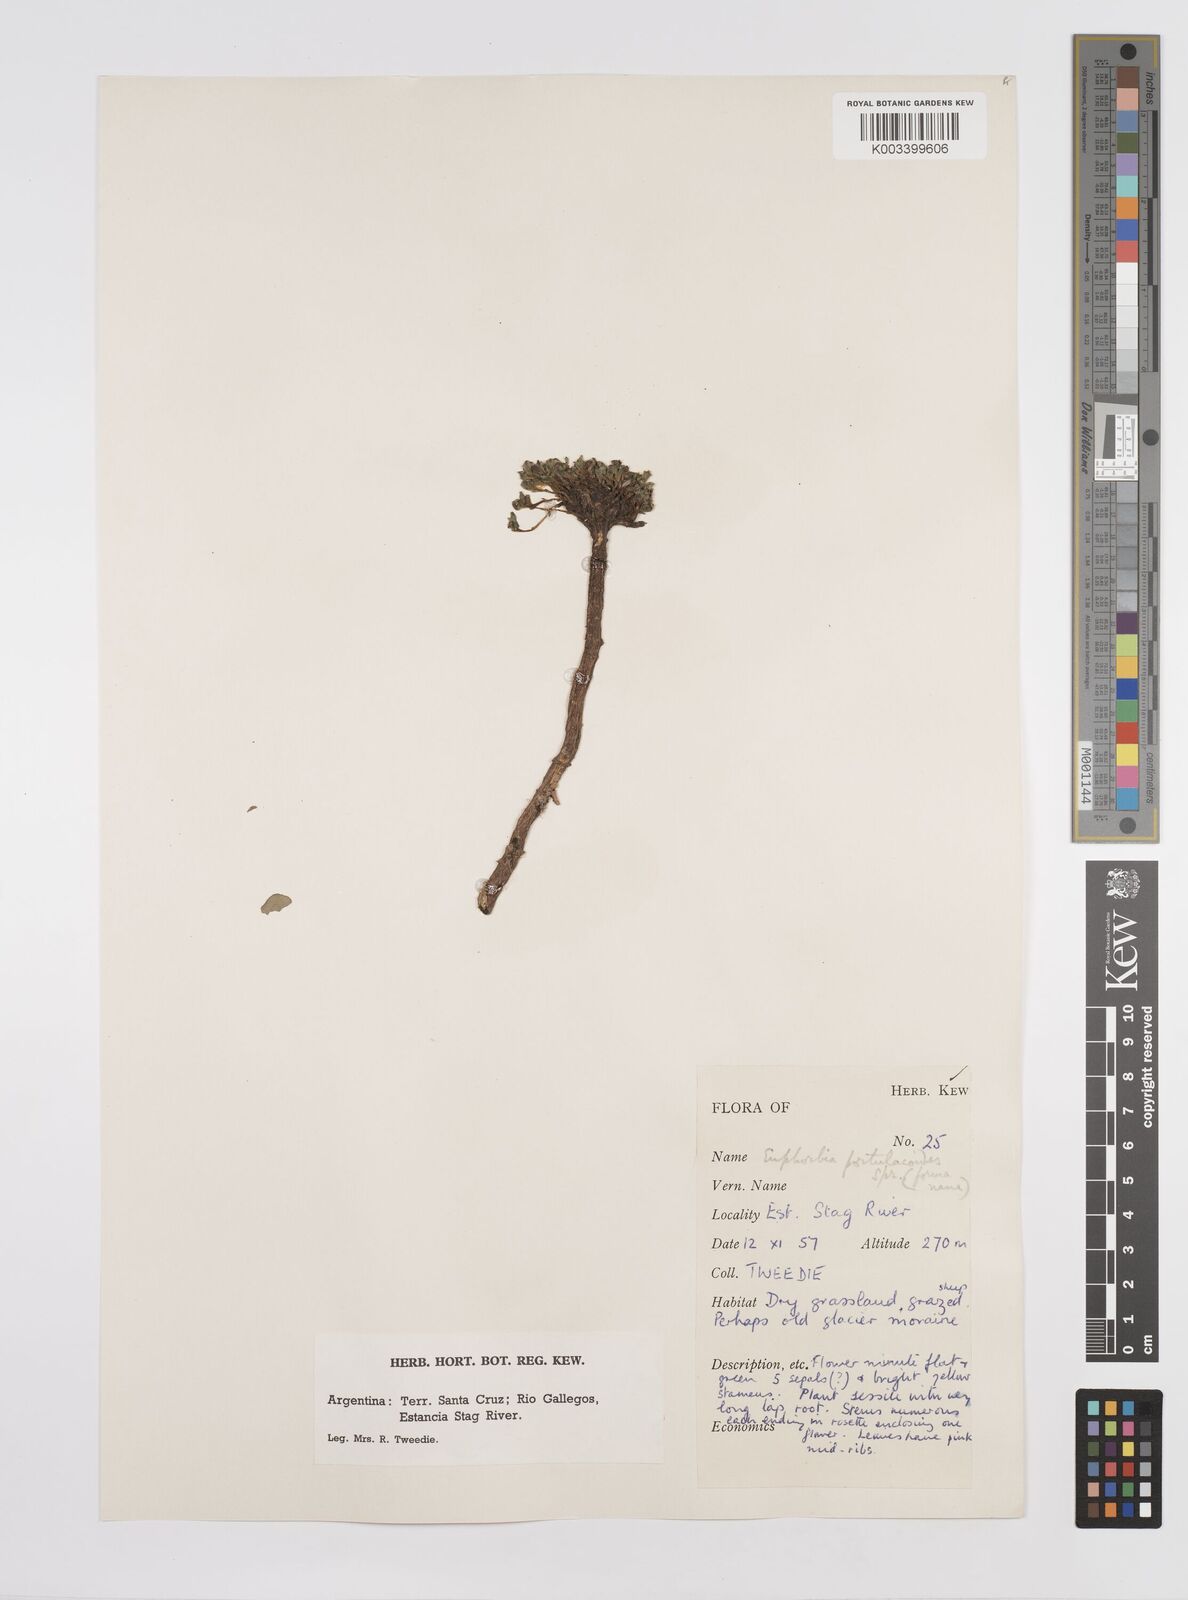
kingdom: Plantae
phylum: Tracheophyta
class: Magnoliopsida
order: Malpighiales
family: Euphorbiaceae
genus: Euphorbia
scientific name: Euphorbia portulacoides
